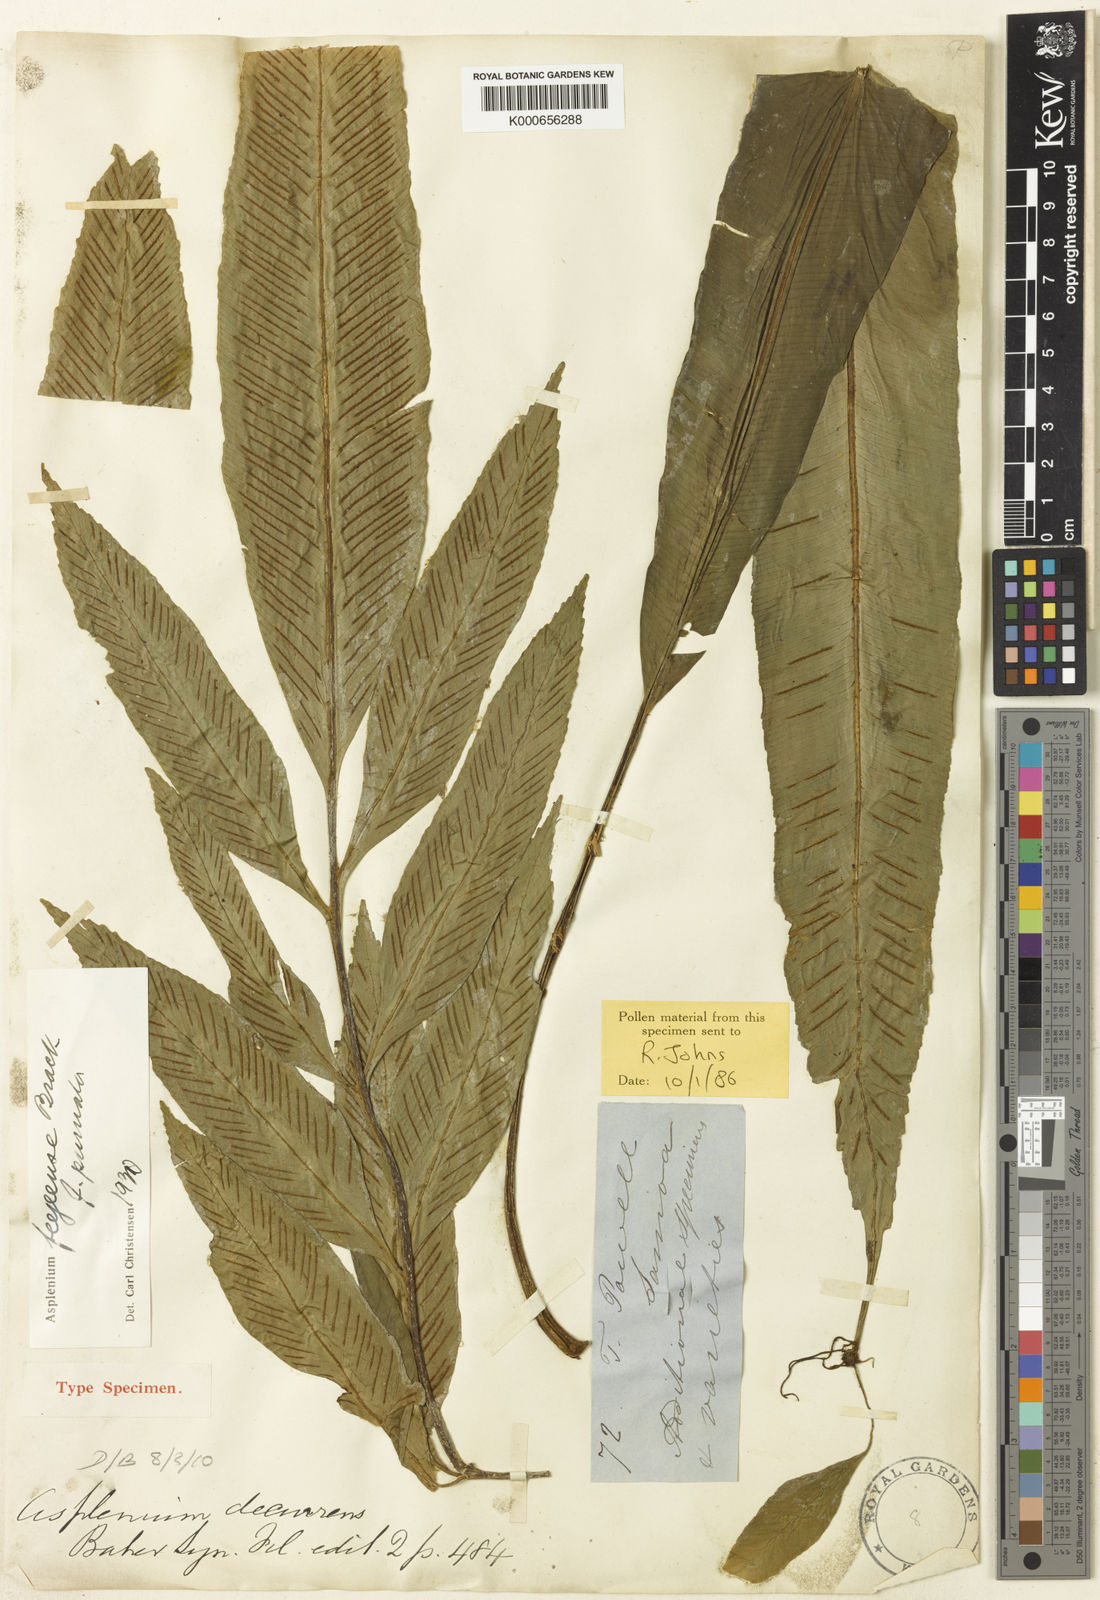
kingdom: Plantae
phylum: Tracheophyta
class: Polypodiopsida
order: Polypodiales
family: Aspleniaceae
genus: Asplenium
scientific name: Asplenium amboinense
